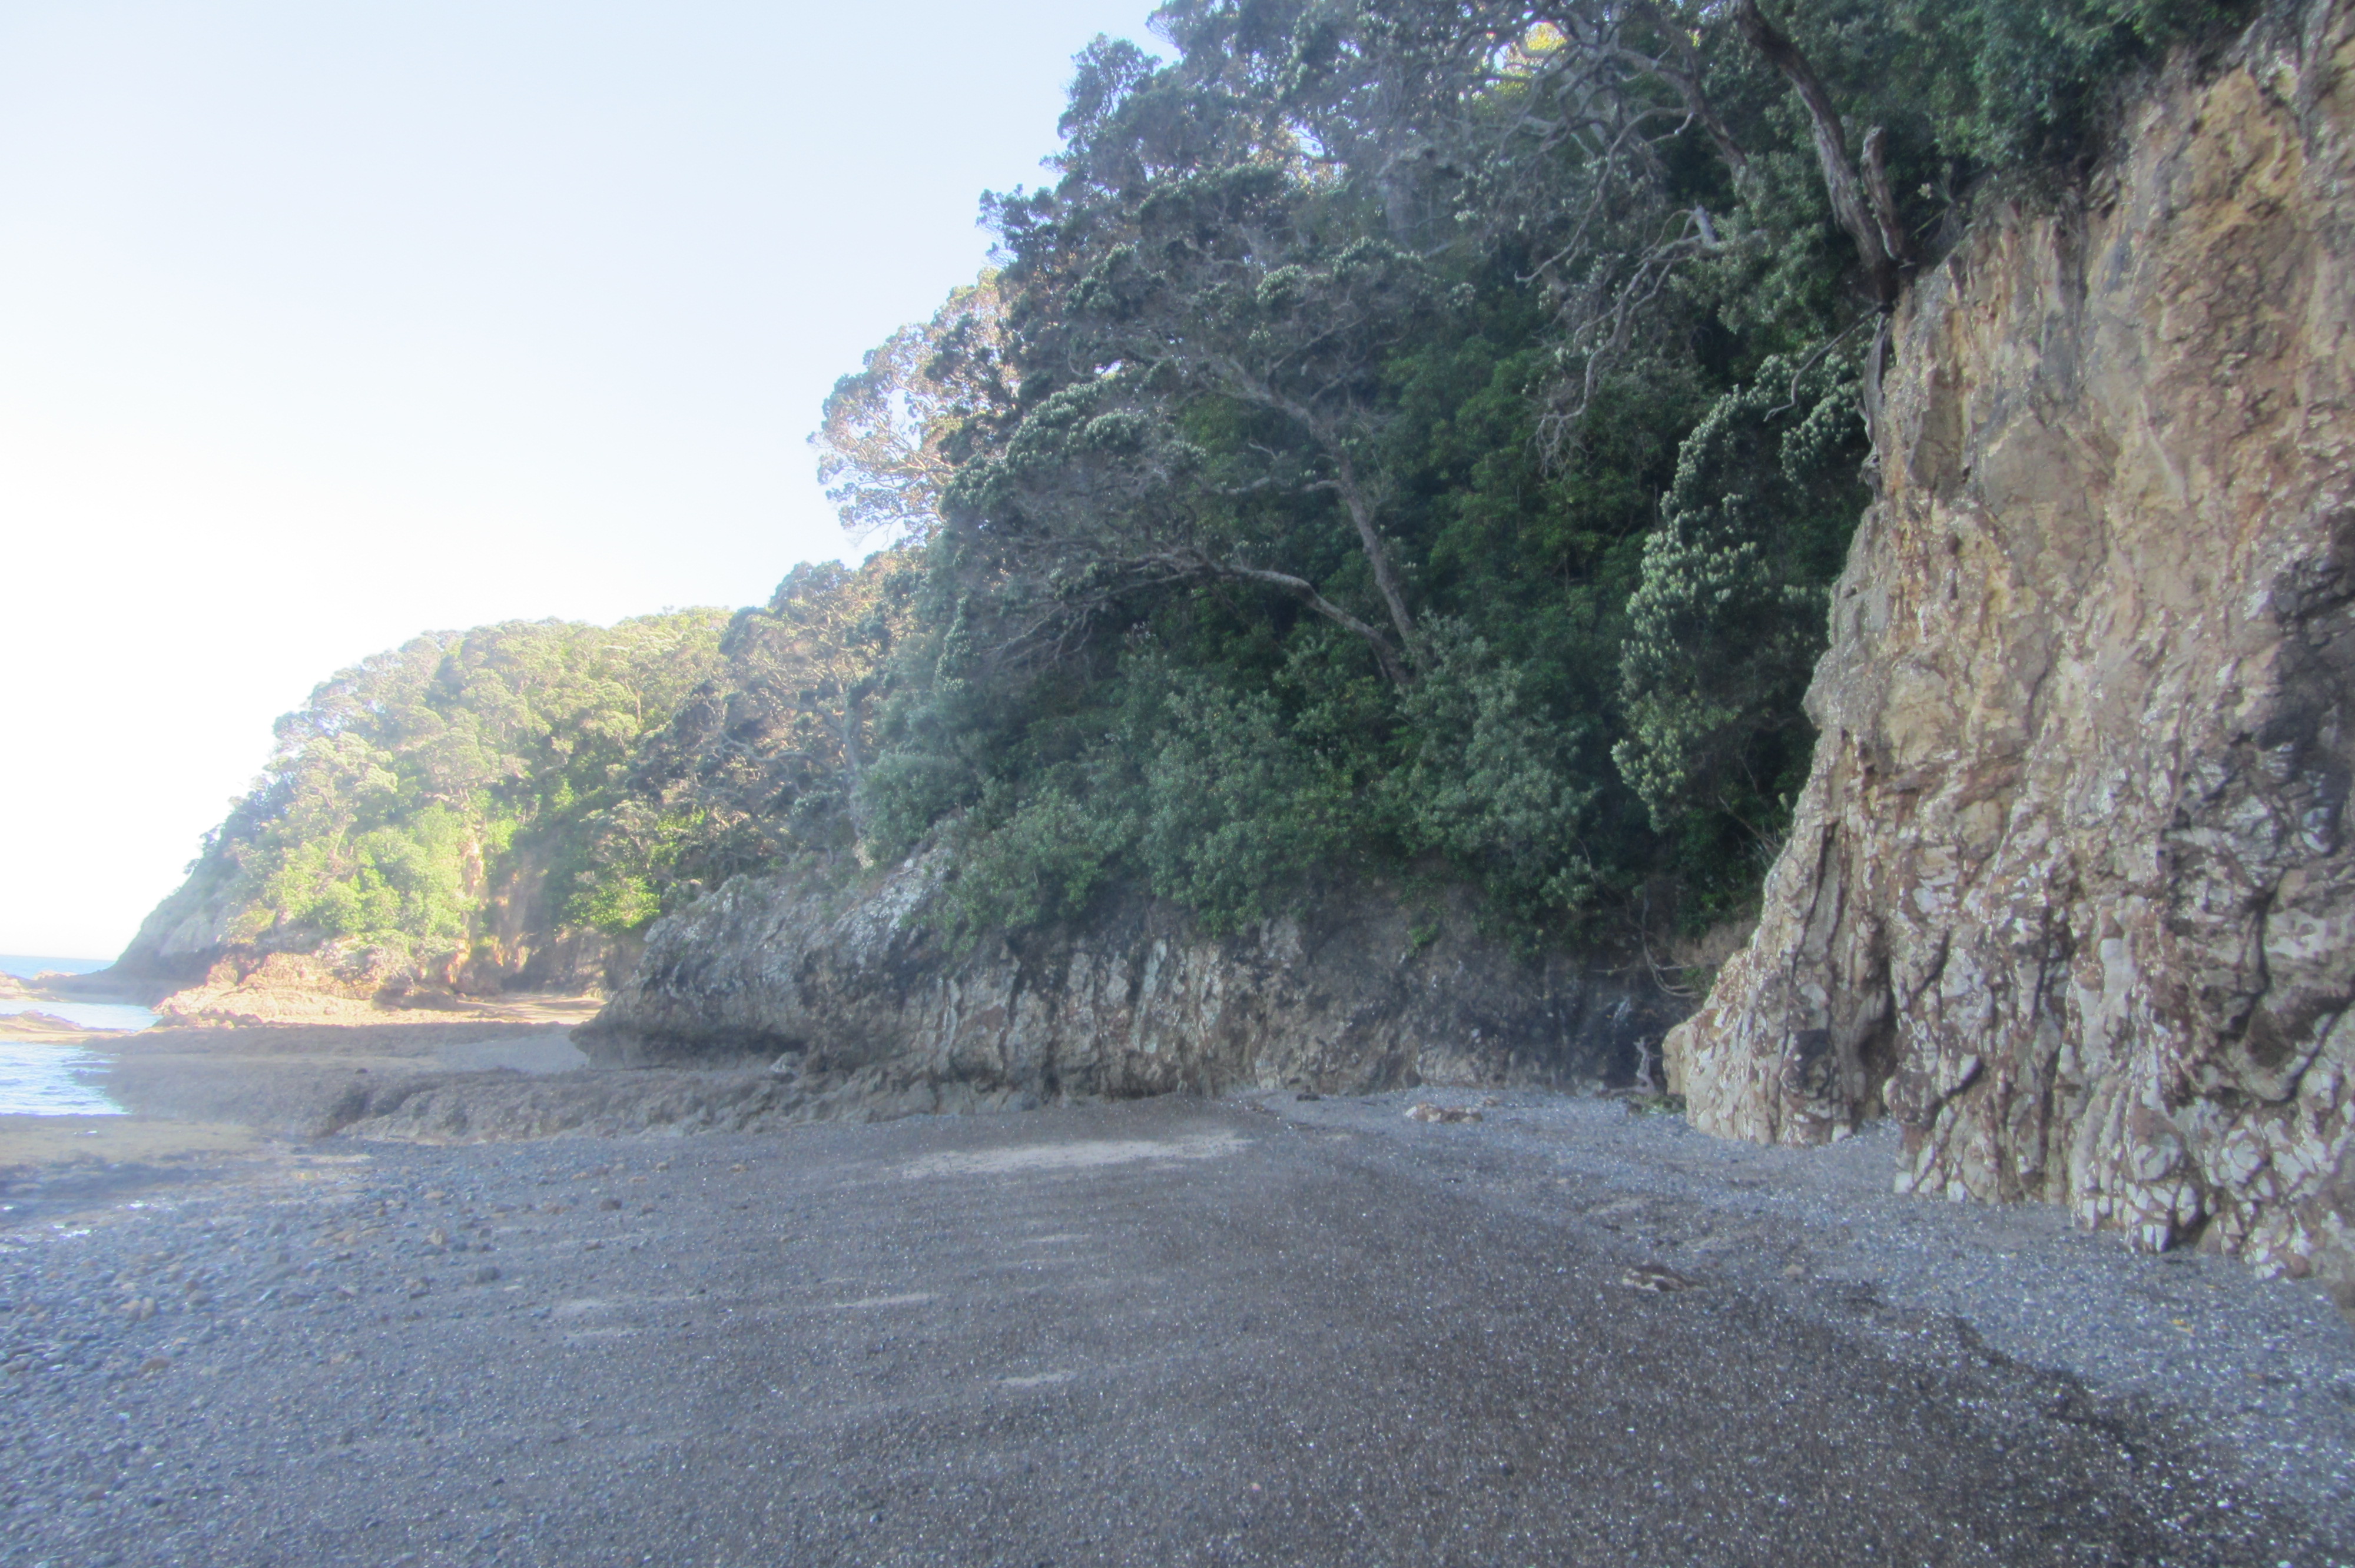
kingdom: Plantae
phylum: Tracheophyta
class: Magnoliopsida
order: Piperales
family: Piperaceae
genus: Peperomia
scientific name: Peperomia urvilleana
